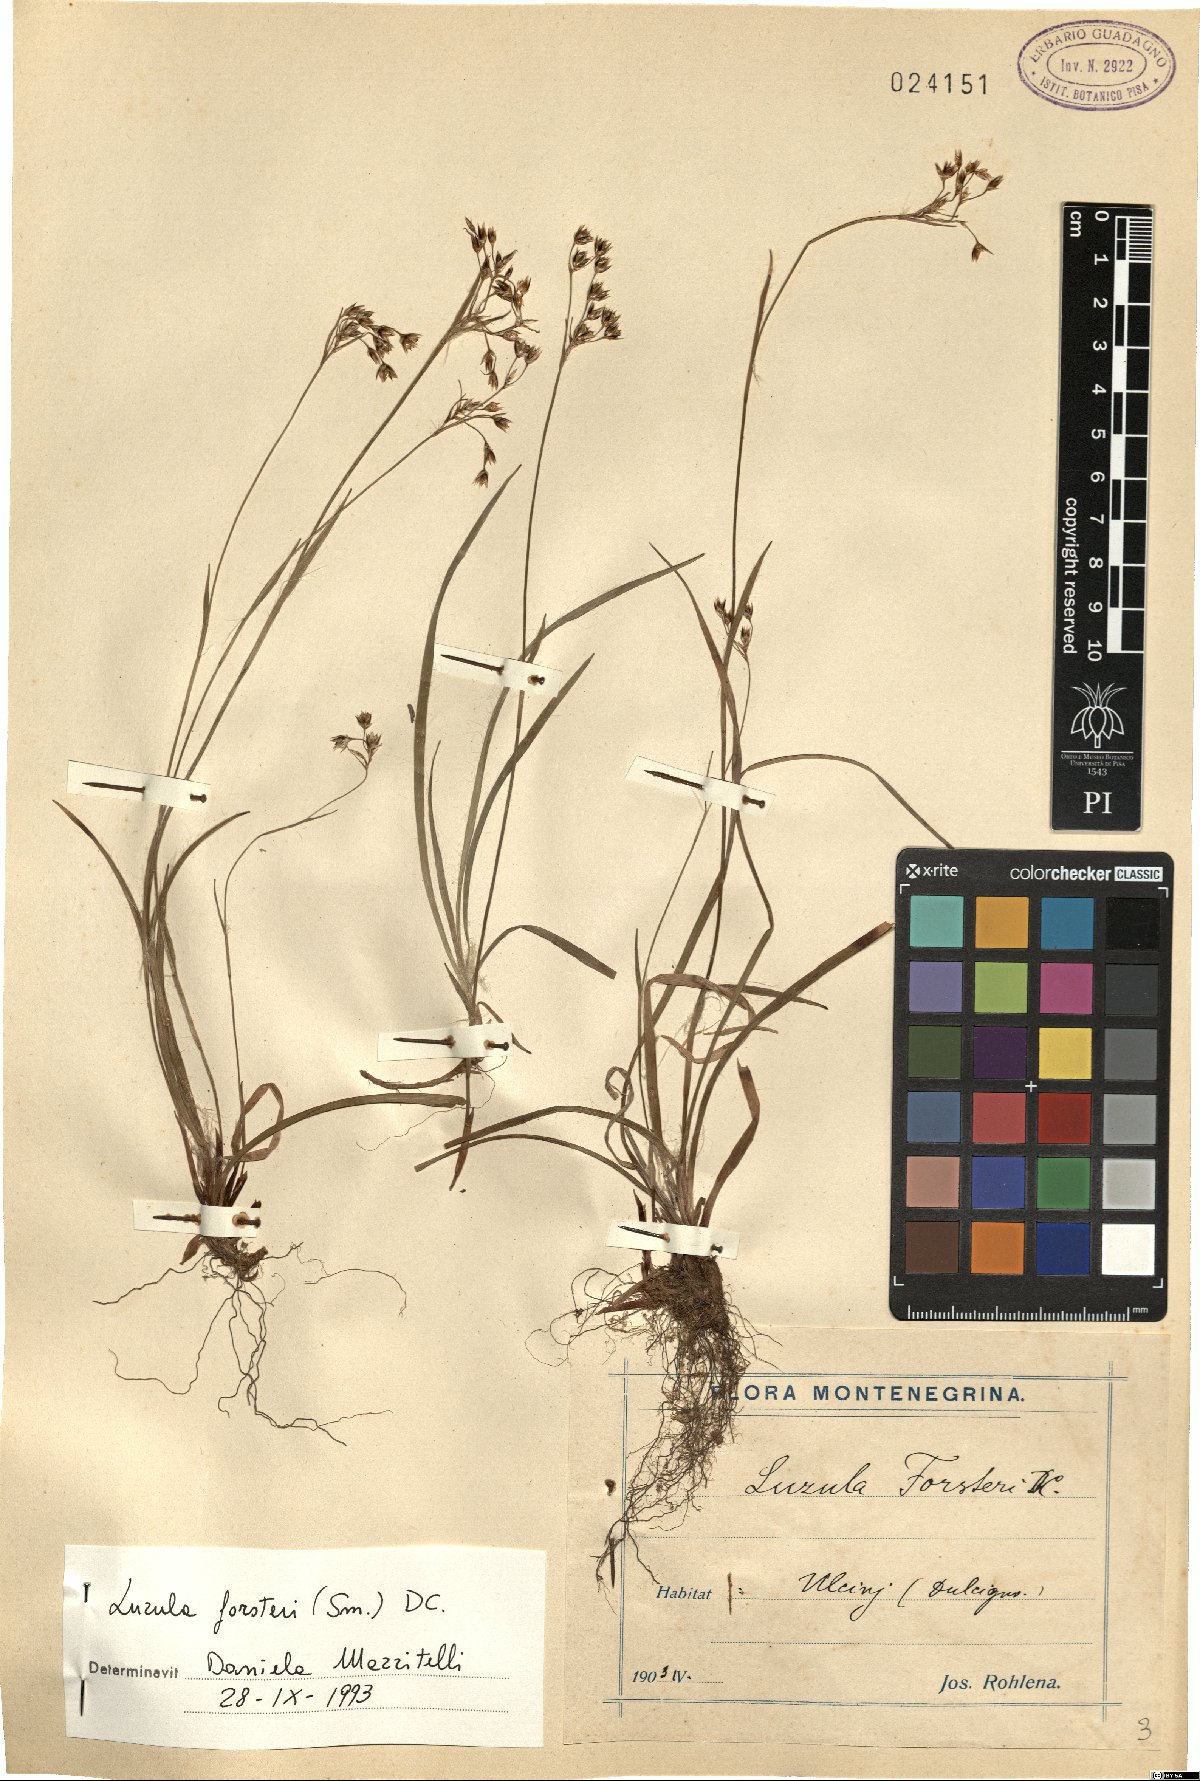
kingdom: Plantae
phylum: Tracheophyta
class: Liliopsida
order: Poales
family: Juncaceae
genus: Luzula
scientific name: Luzula forsteri
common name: Southern wood-rush
